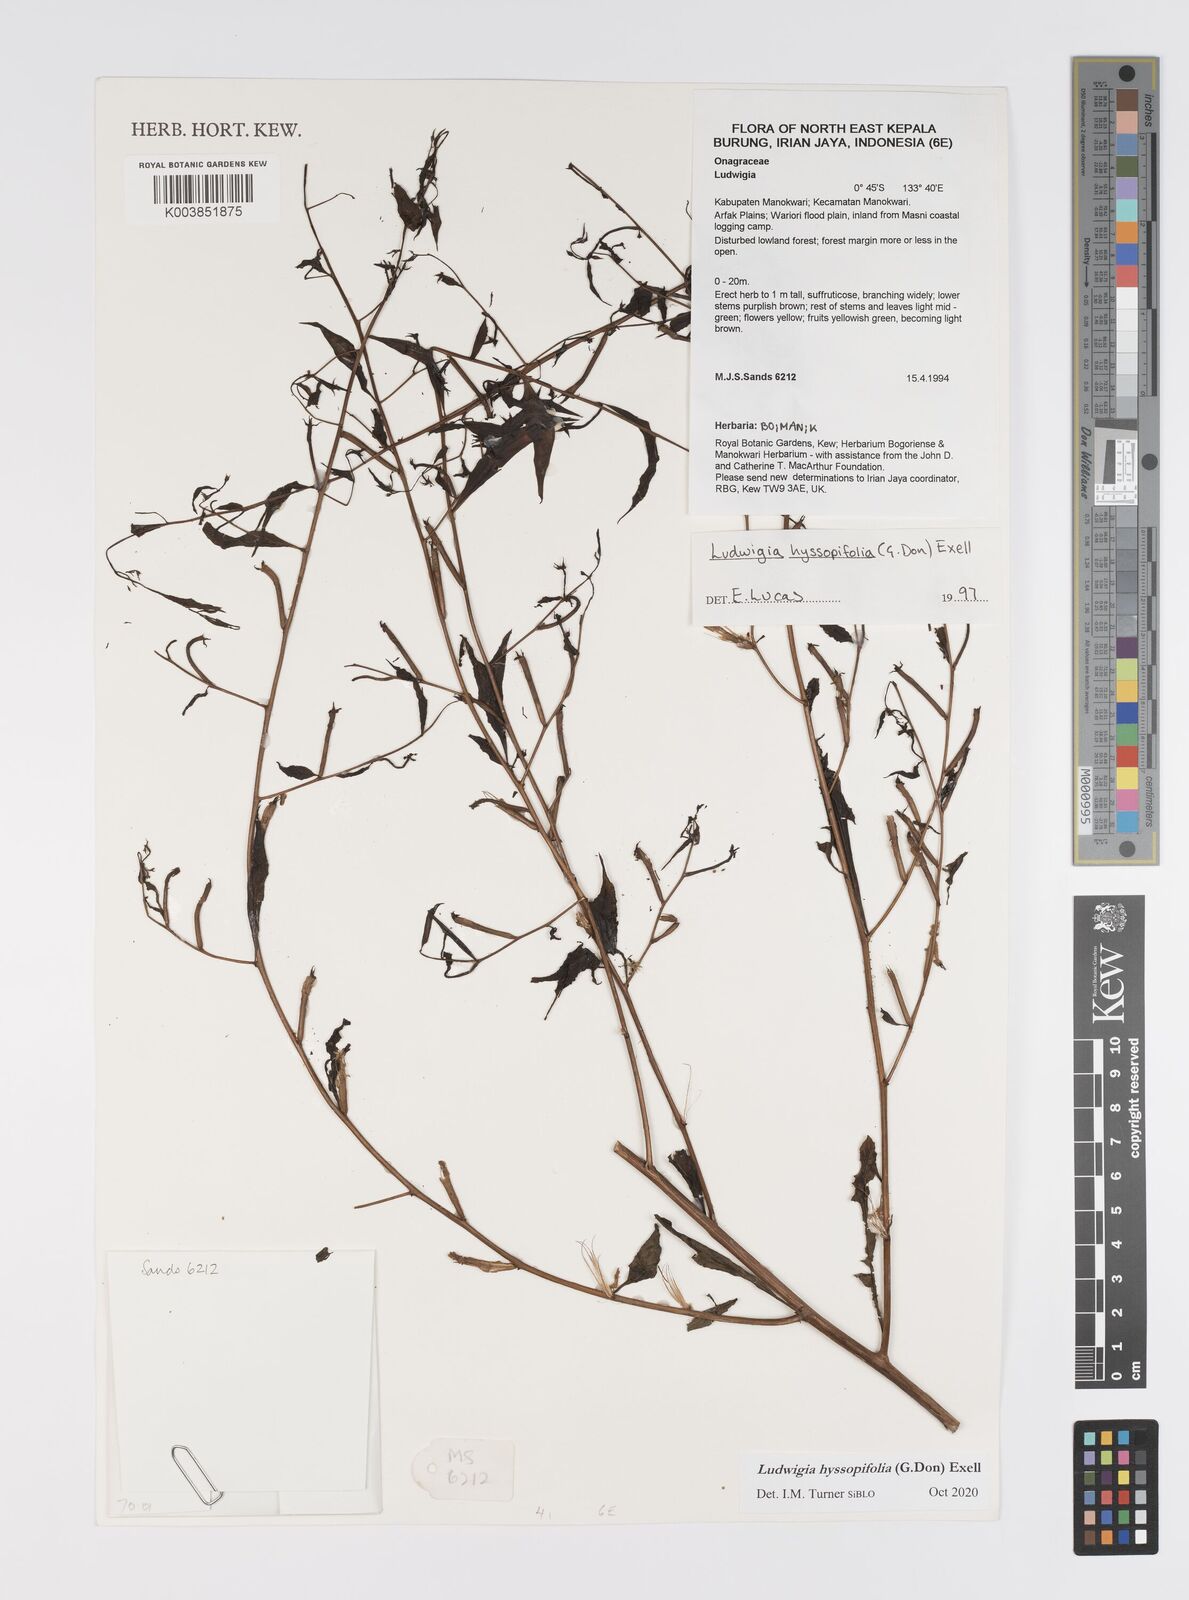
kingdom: Plantae
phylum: Tracheophyta
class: Magnoliopsida
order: Myrtales
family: Onagraceae
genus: Ludwigia
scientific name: Ludwigia hyssopifolia
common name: Linear leaf water primrose
